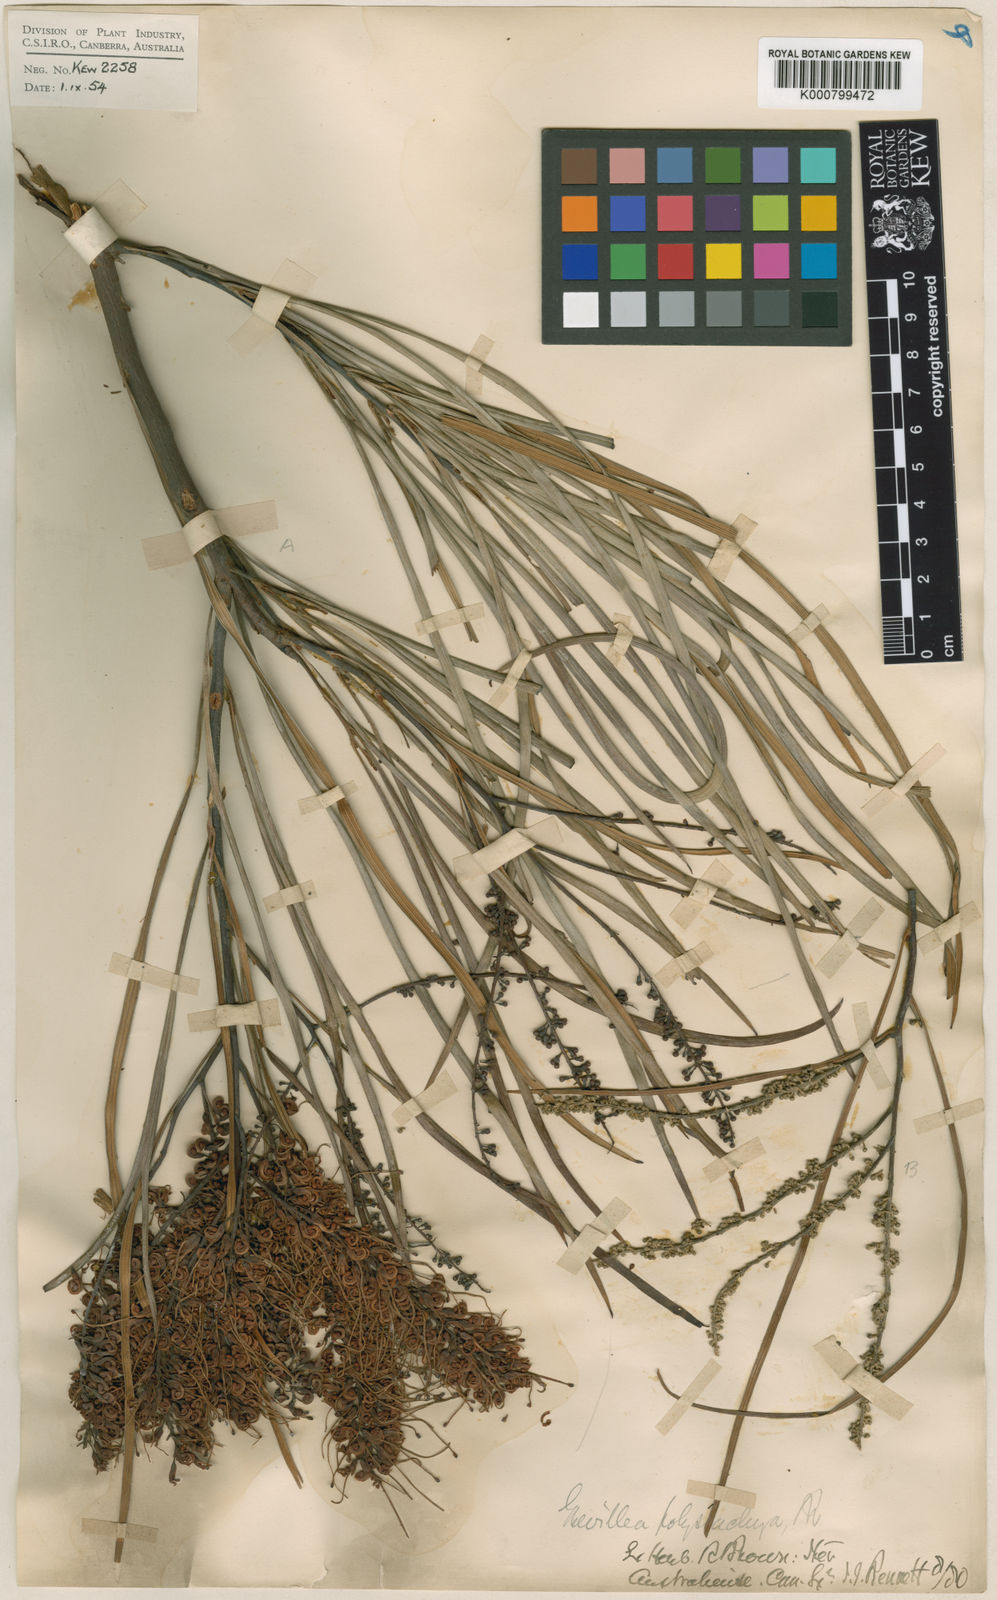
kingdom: Plantae
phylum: Tracheophyta
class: Magnoliopsida
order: Proteales
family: Proteaceae
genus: Grevillea
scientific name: Grevillea parallela
